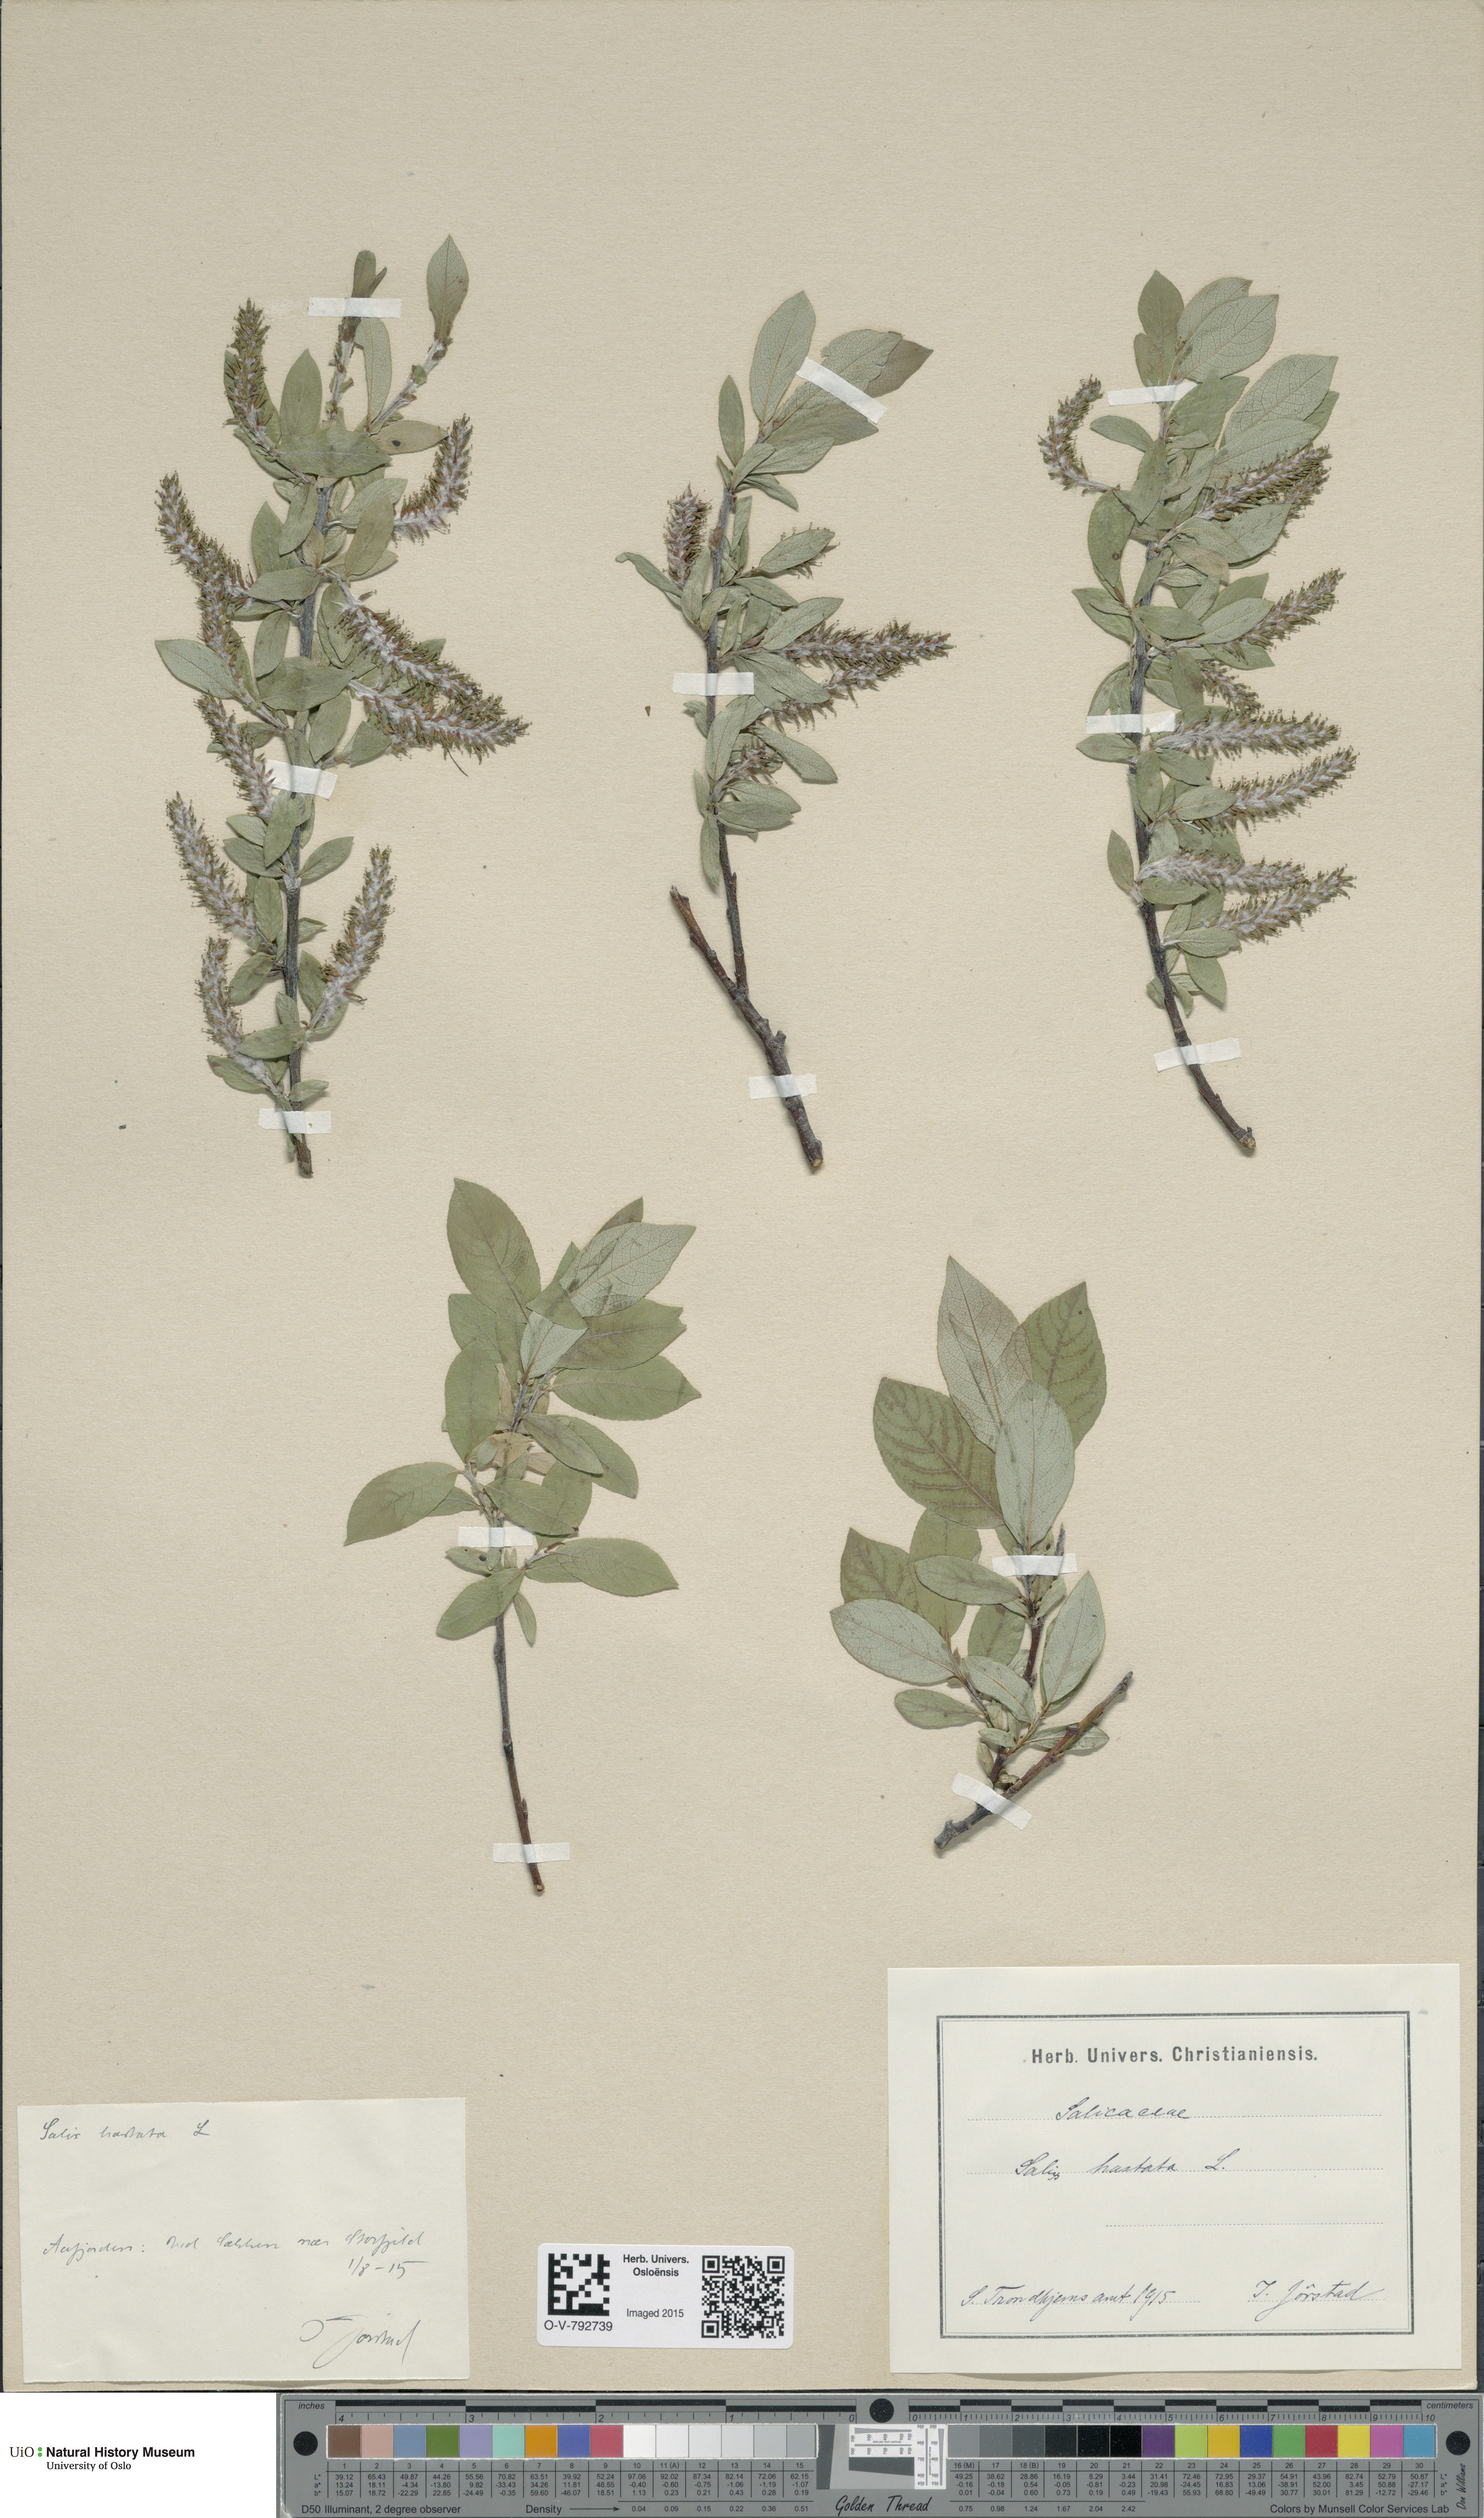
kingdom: Plantae
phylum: Tracheophyta
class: Magnoliopsida
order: Malpighiales
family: Salicaceae
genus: Salix
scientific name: Salix hastata
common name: Halberd willow
